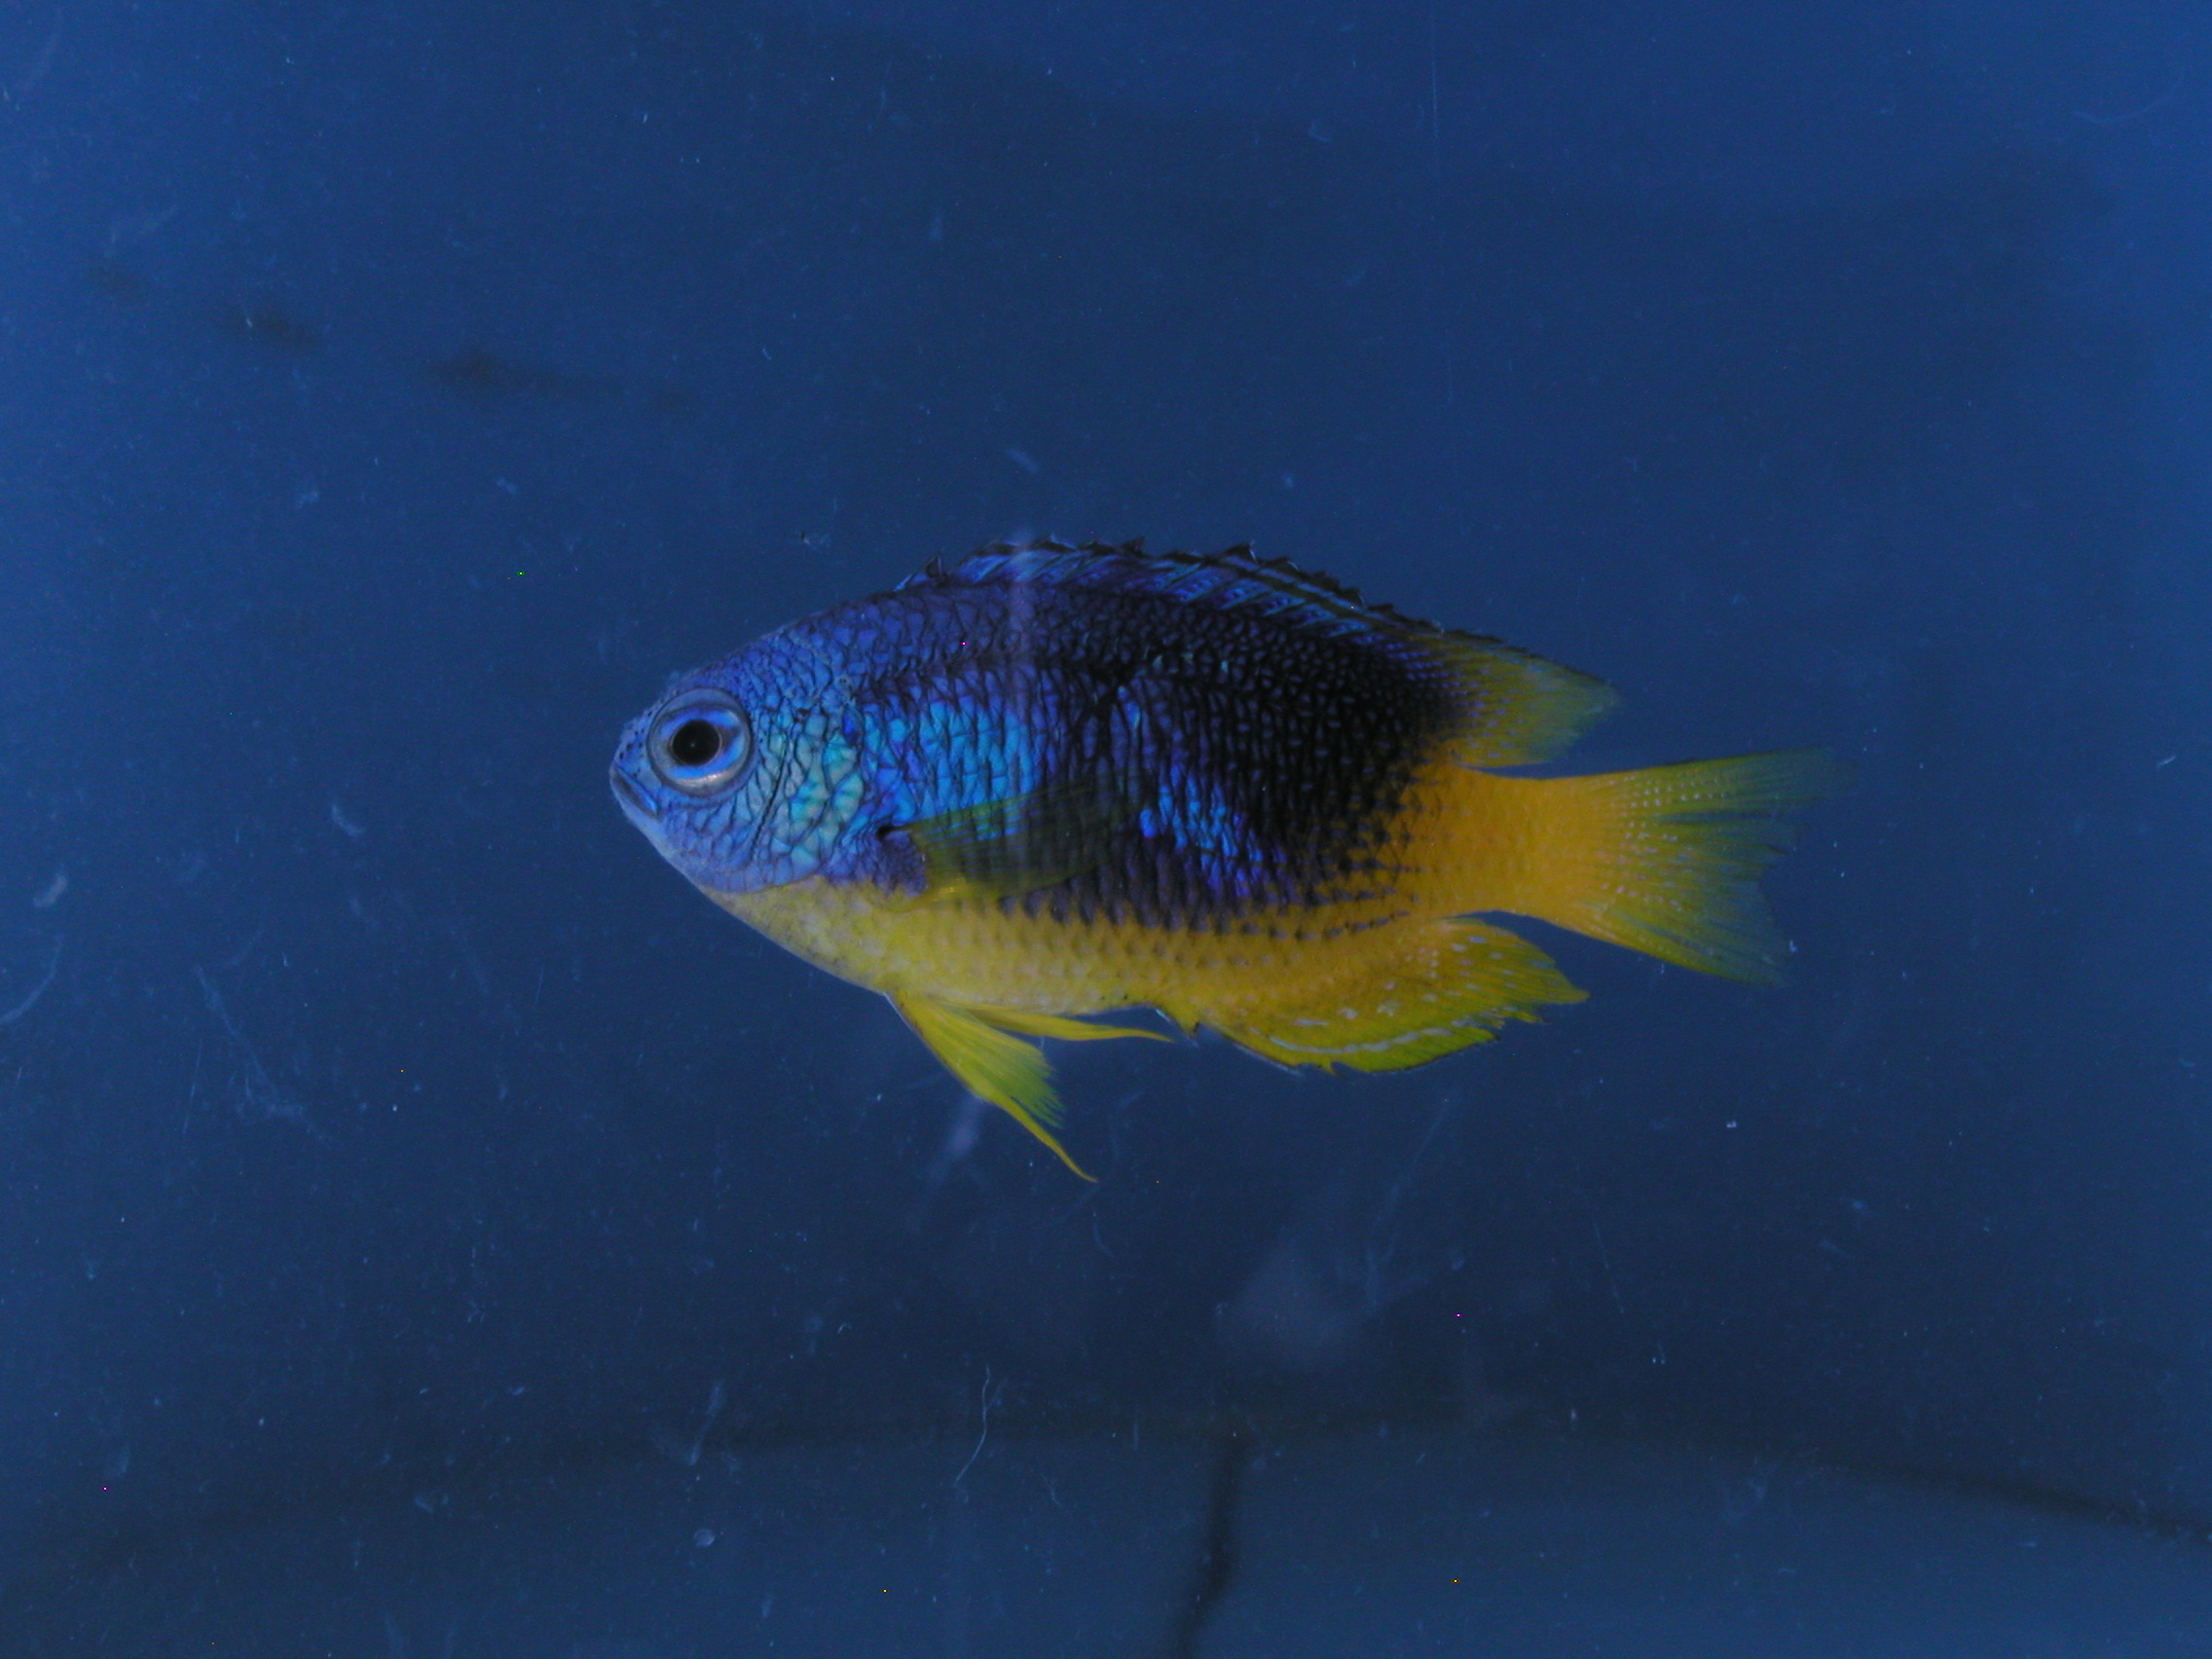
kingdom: Animalia
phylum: Chordata
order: Perciformes
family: Pomacentridae
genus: Pomacentrus
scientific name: Pomacentrus caeruleus
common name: Caerulean damsel
